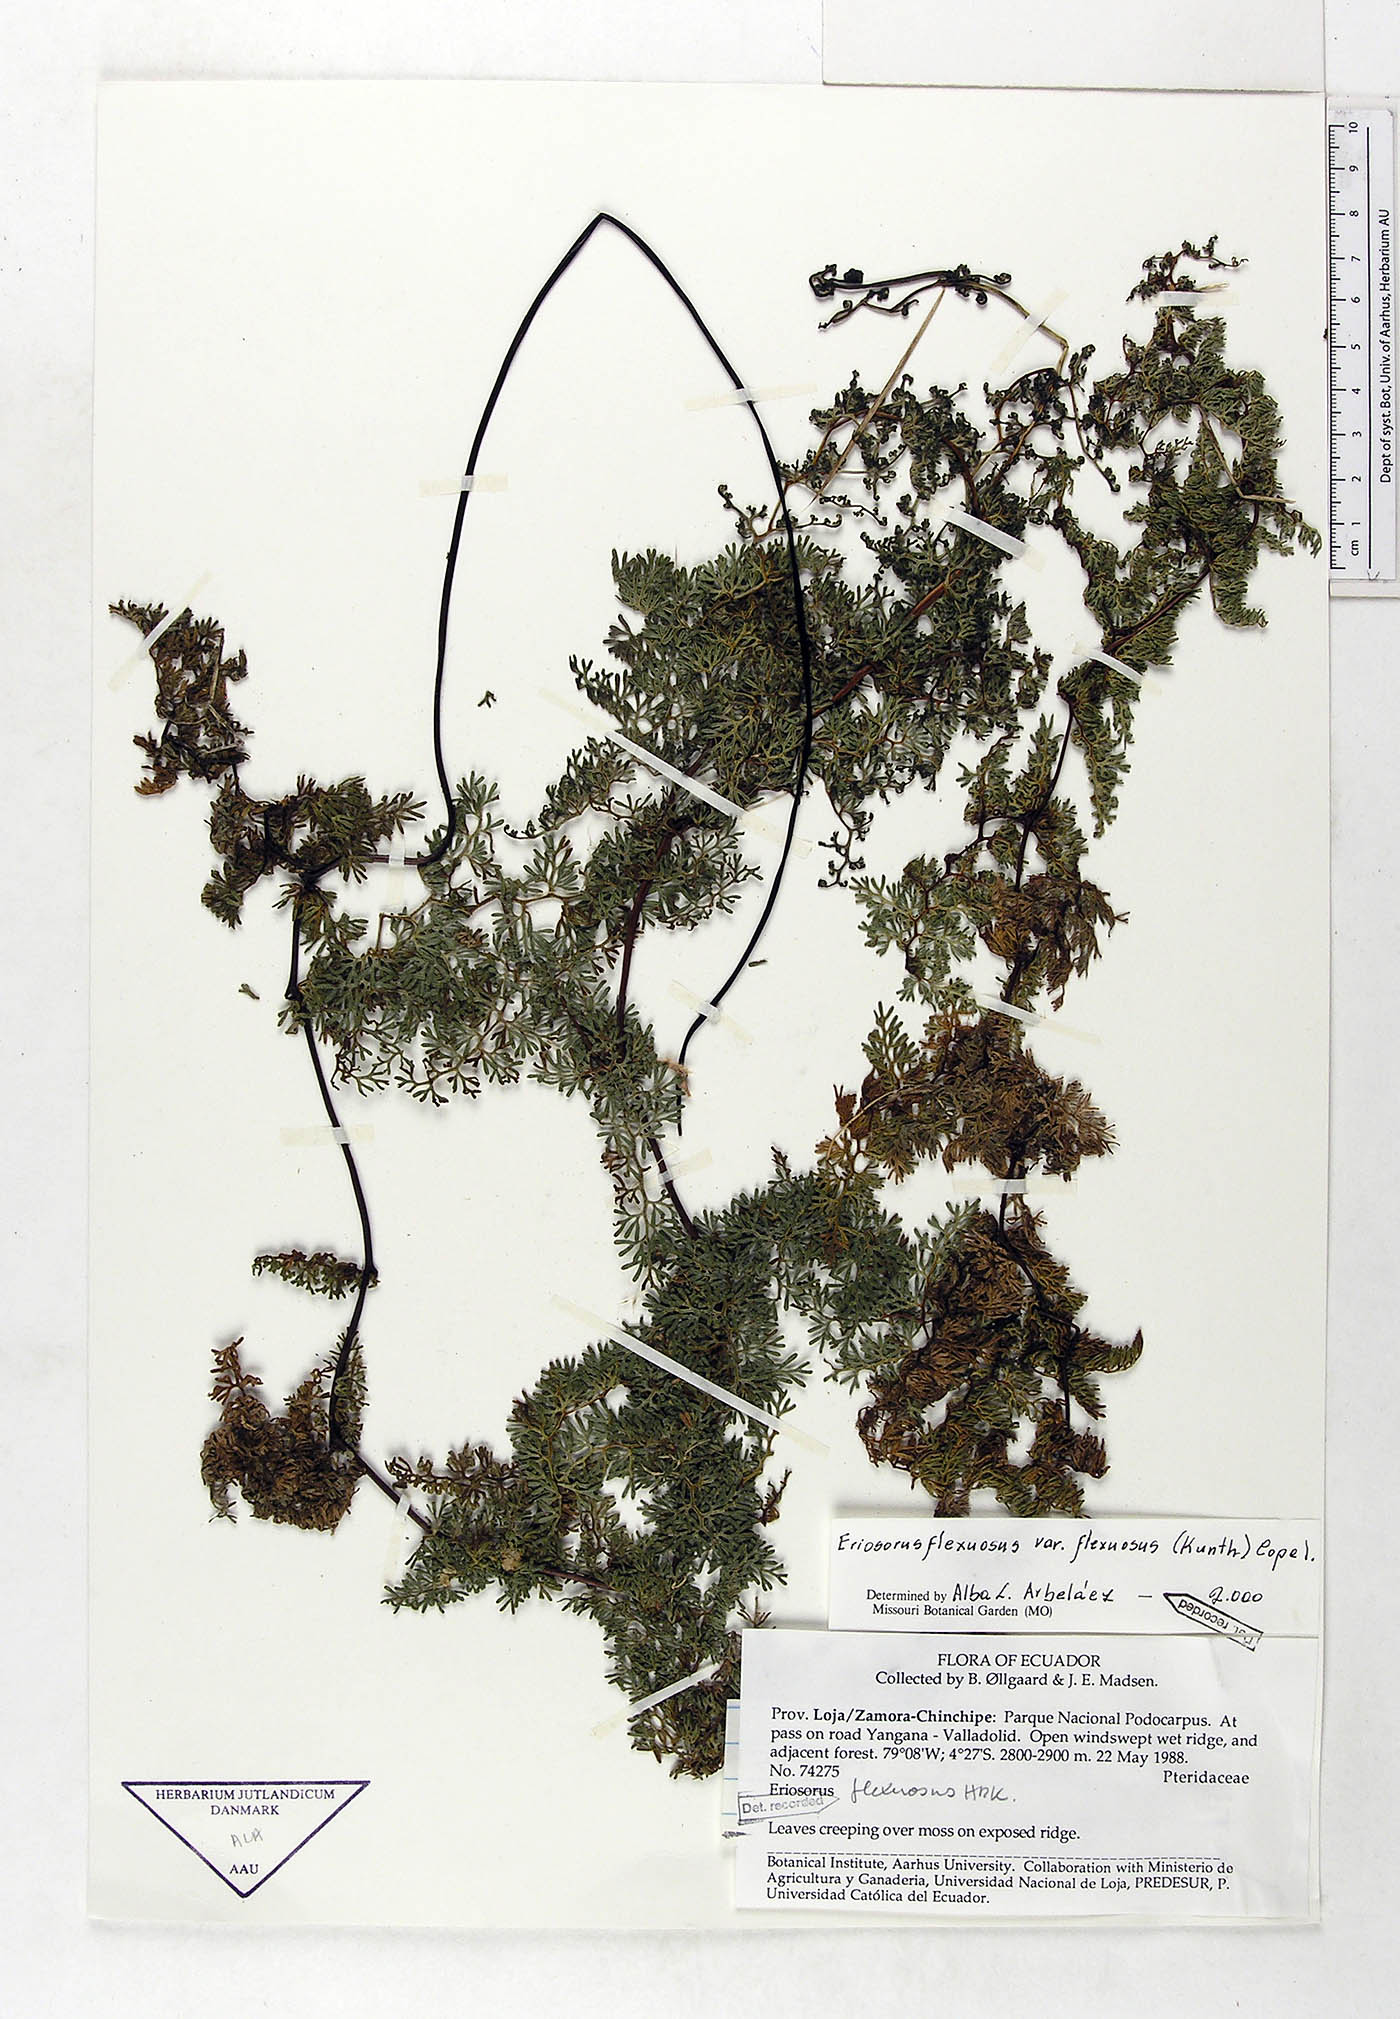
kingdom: Plantae
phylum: Tracheophyta
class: Polypodiopsida
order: Polypodiales
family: Pteridaceae
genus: Jamesonia
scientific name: Jamesonia flexuosa
